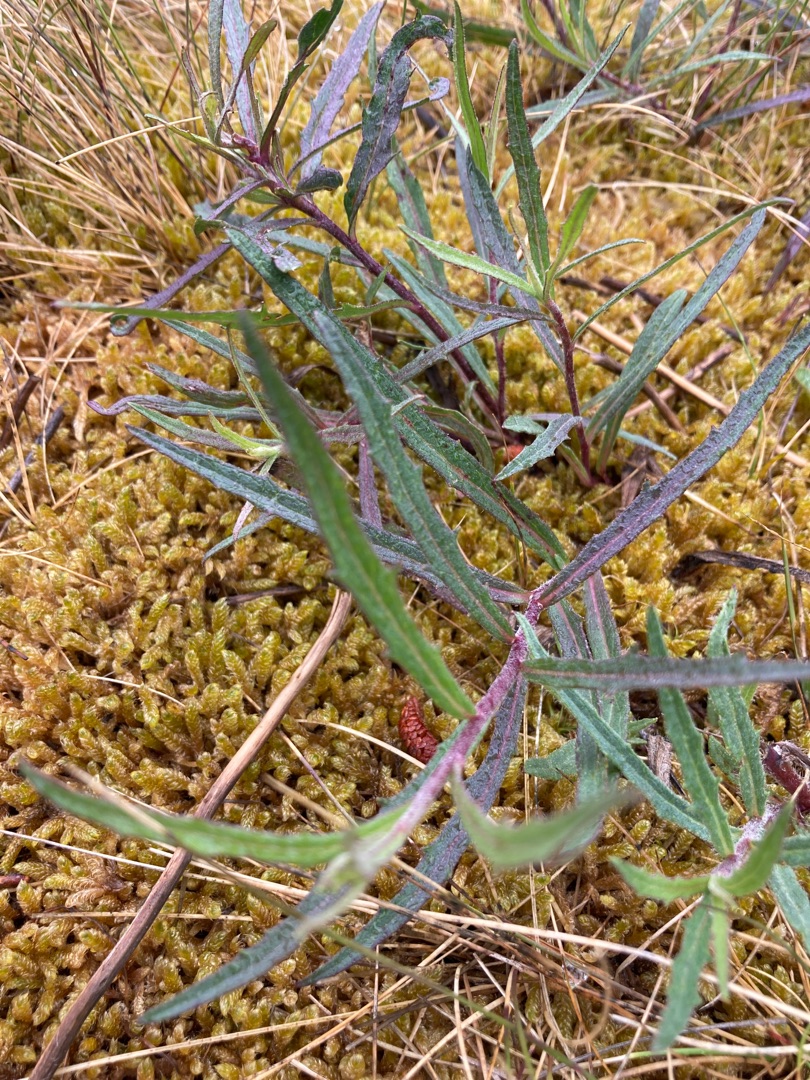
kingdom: Plantae
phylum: Tracheophyta
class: Magnoliopsida
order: Asterales
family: Asteraceae
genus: Hieracium
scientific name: Hieracium umbellatum
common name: Smalbladet høgeurt
